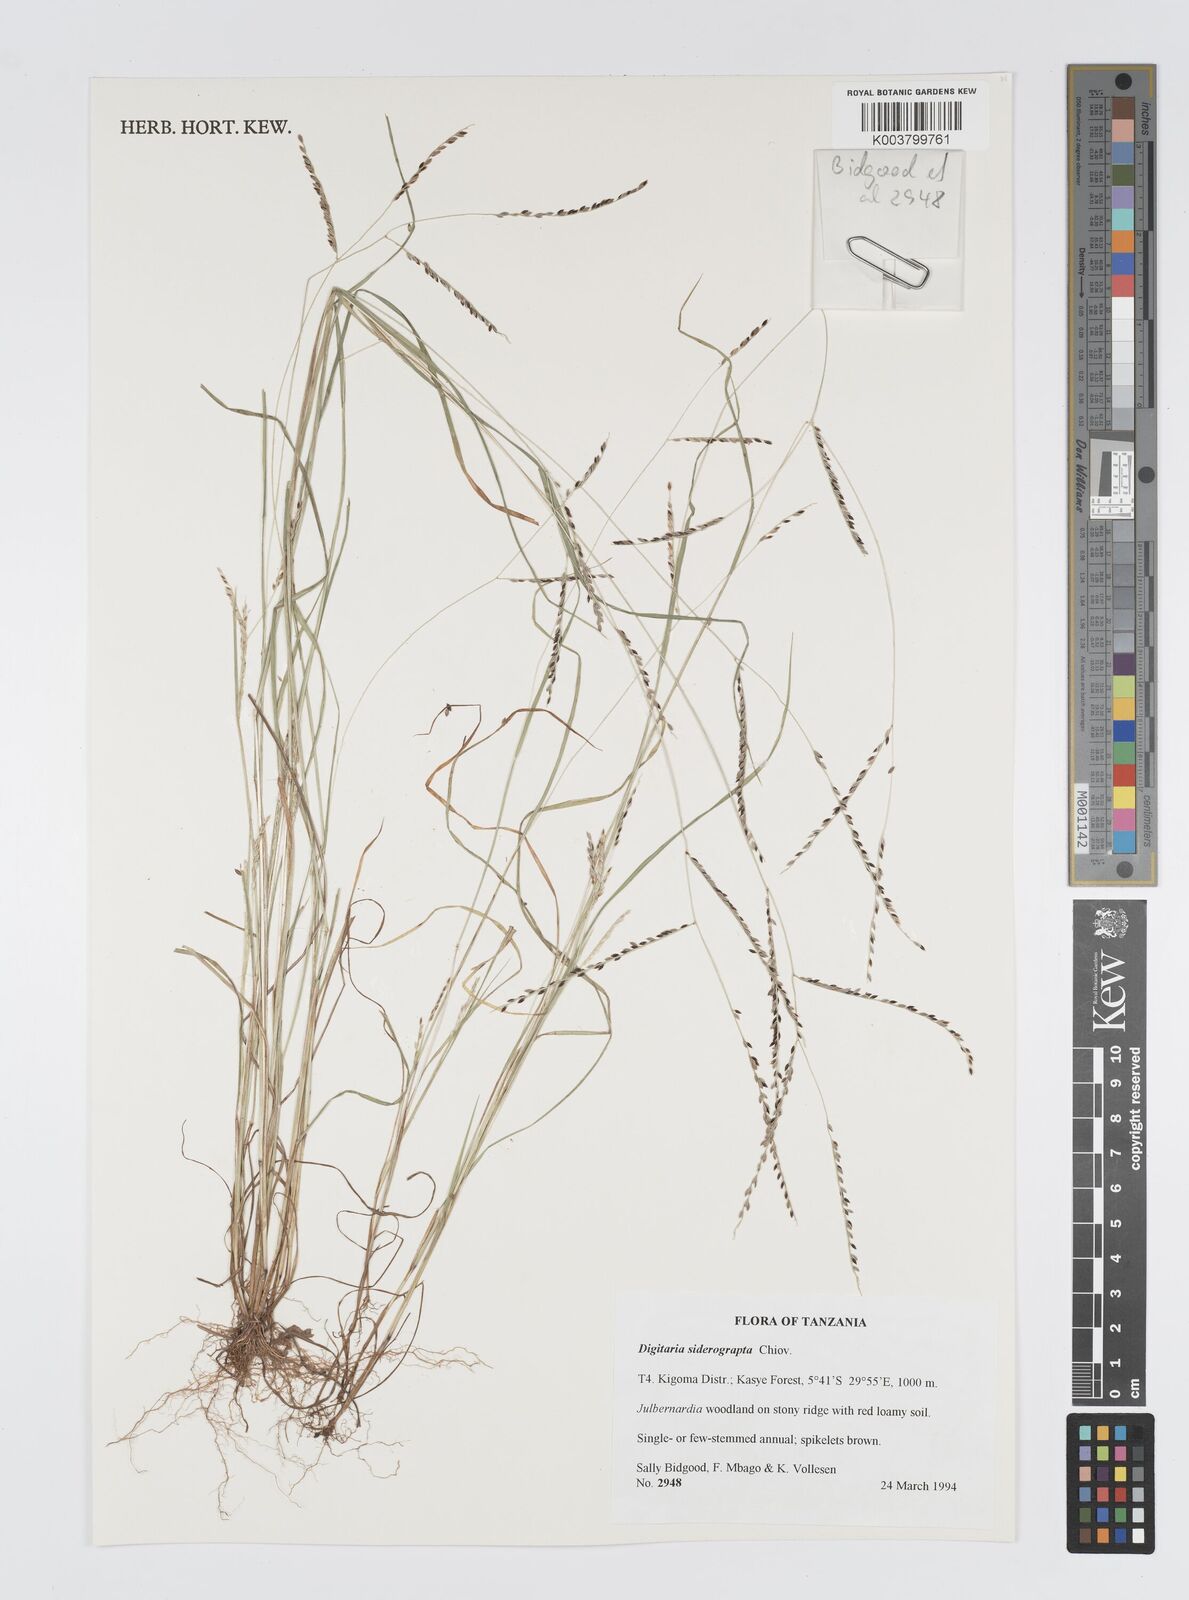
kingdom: Plantae
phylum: Tracheophyta
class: Liliopsida
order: Poales
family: Poaceae
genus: Digitaria
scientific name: Digitaria siderograpta
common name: Crab grass
